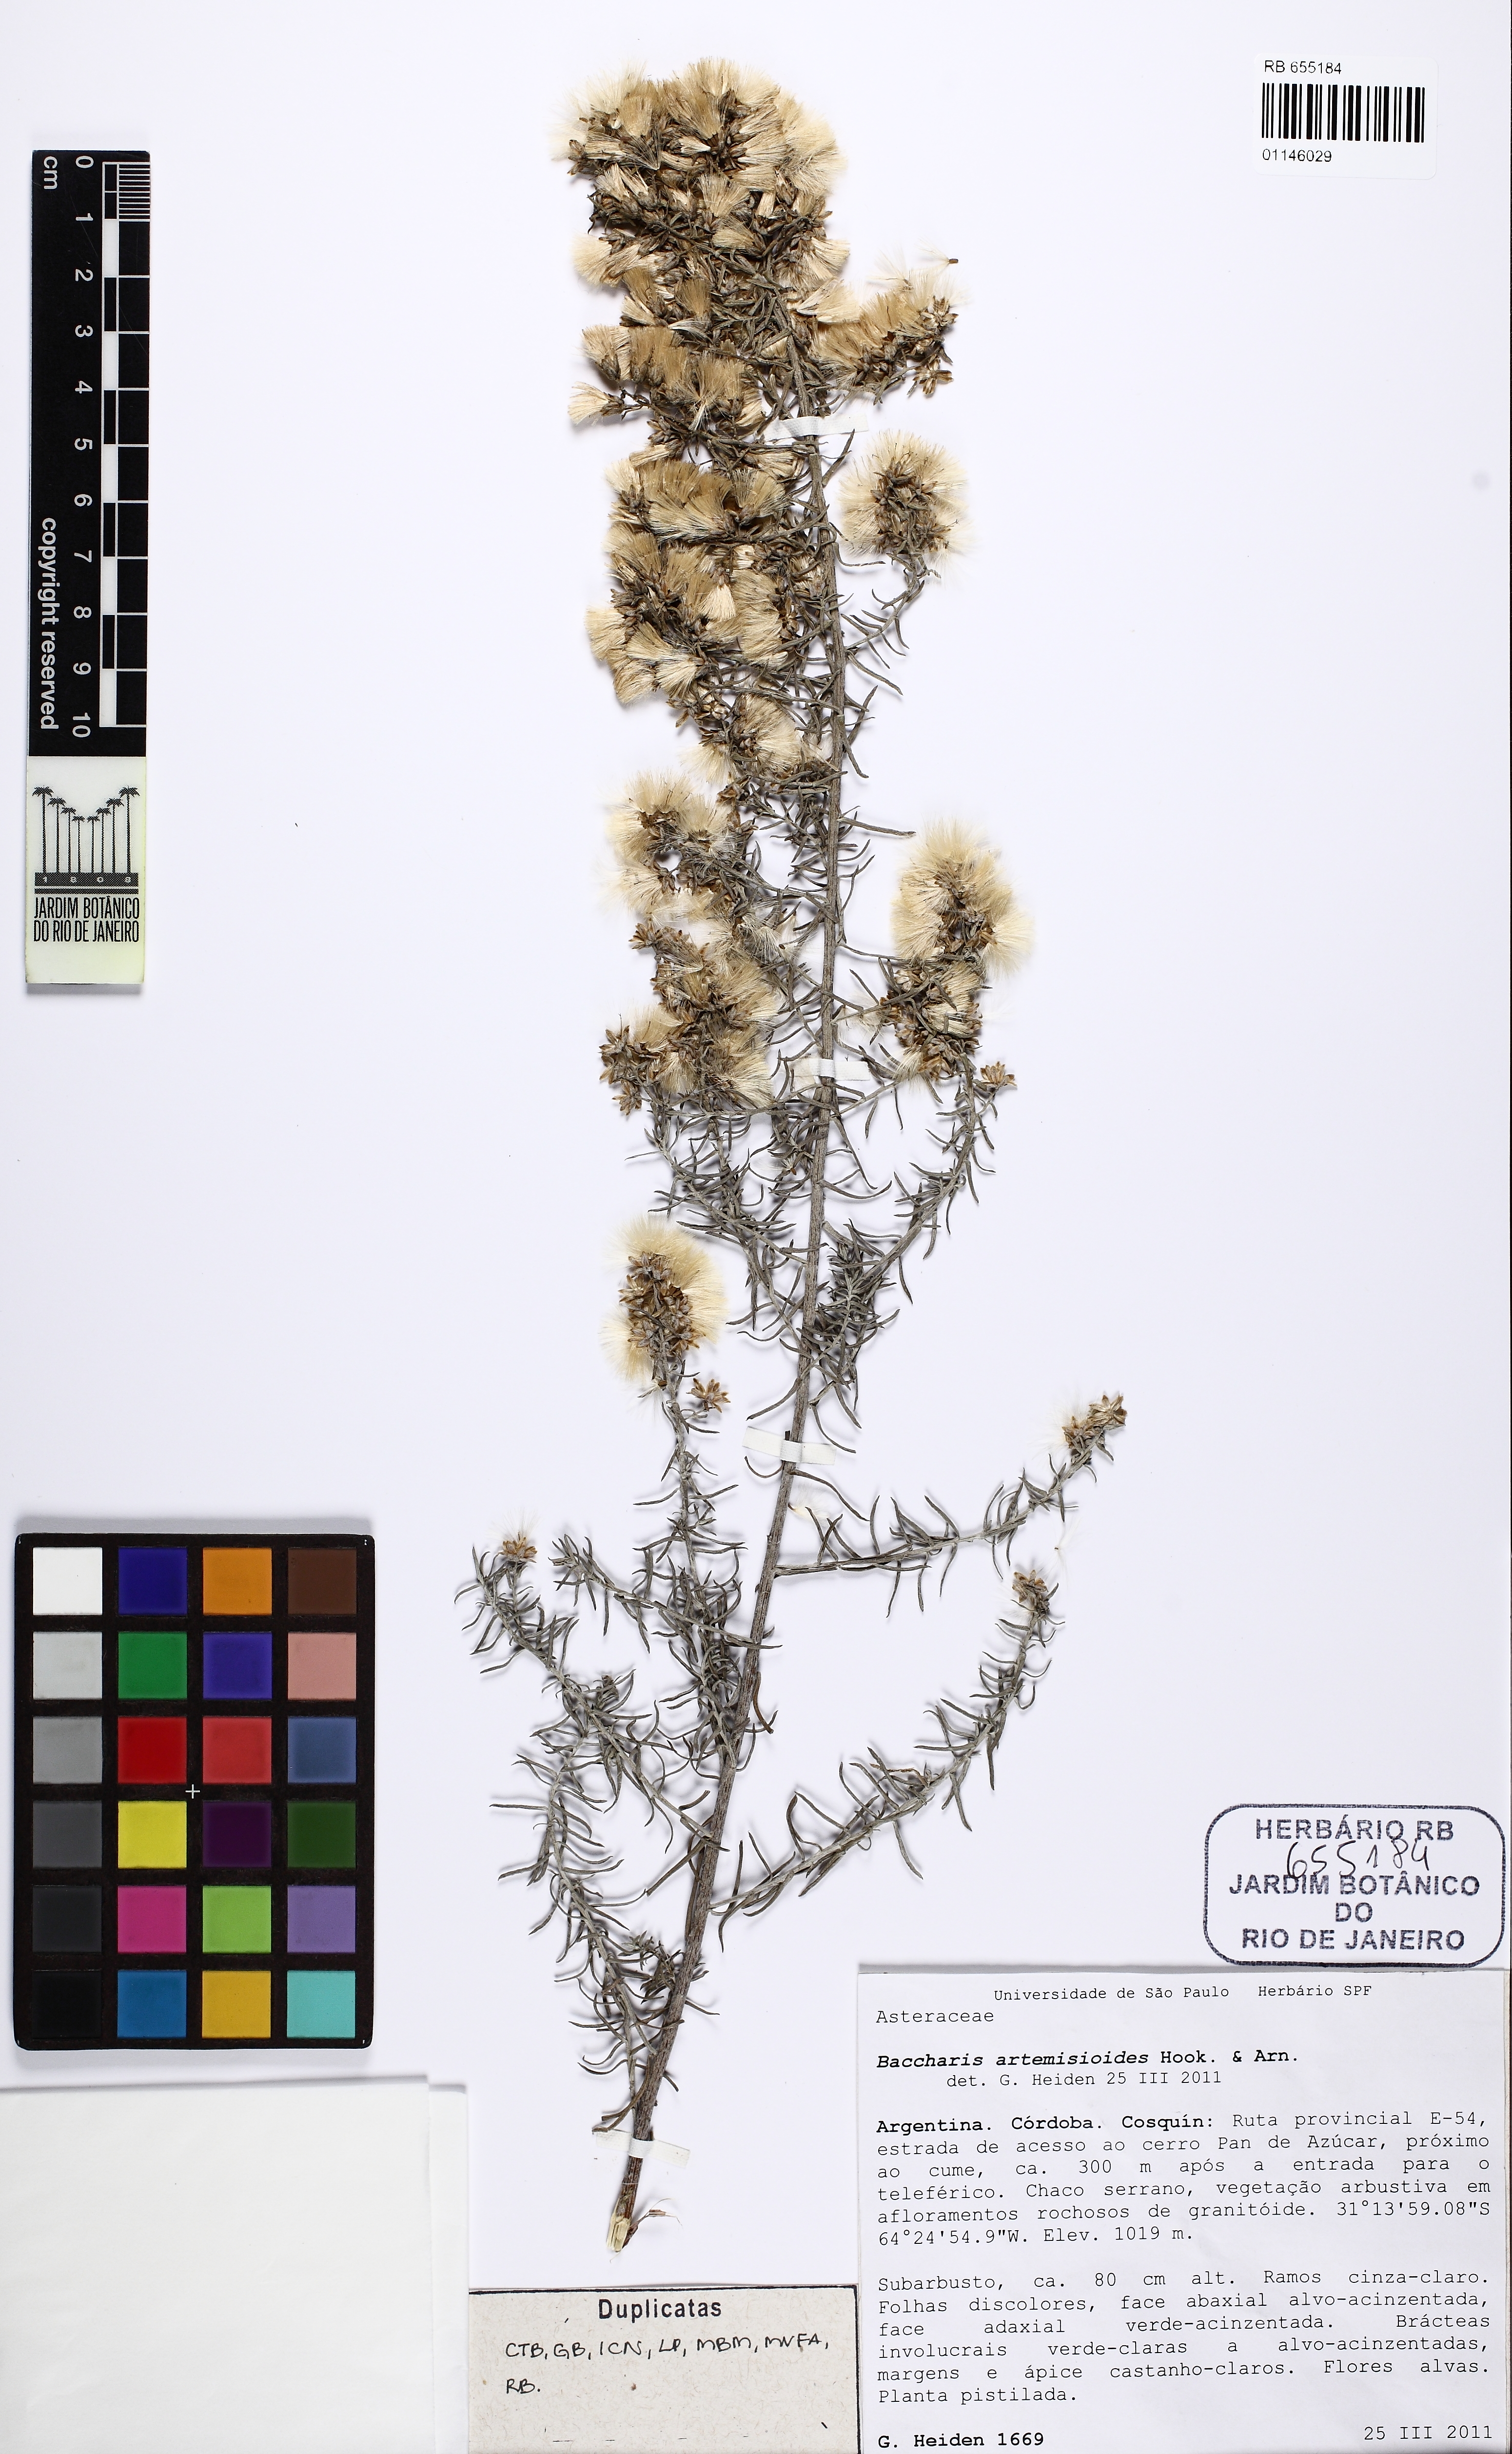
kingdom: Plantae
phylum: Tracheophyta
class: Magnoliopsida
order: Asterales
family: Asteraceae
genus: Baccharis
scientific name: Baccharis artemisioides
